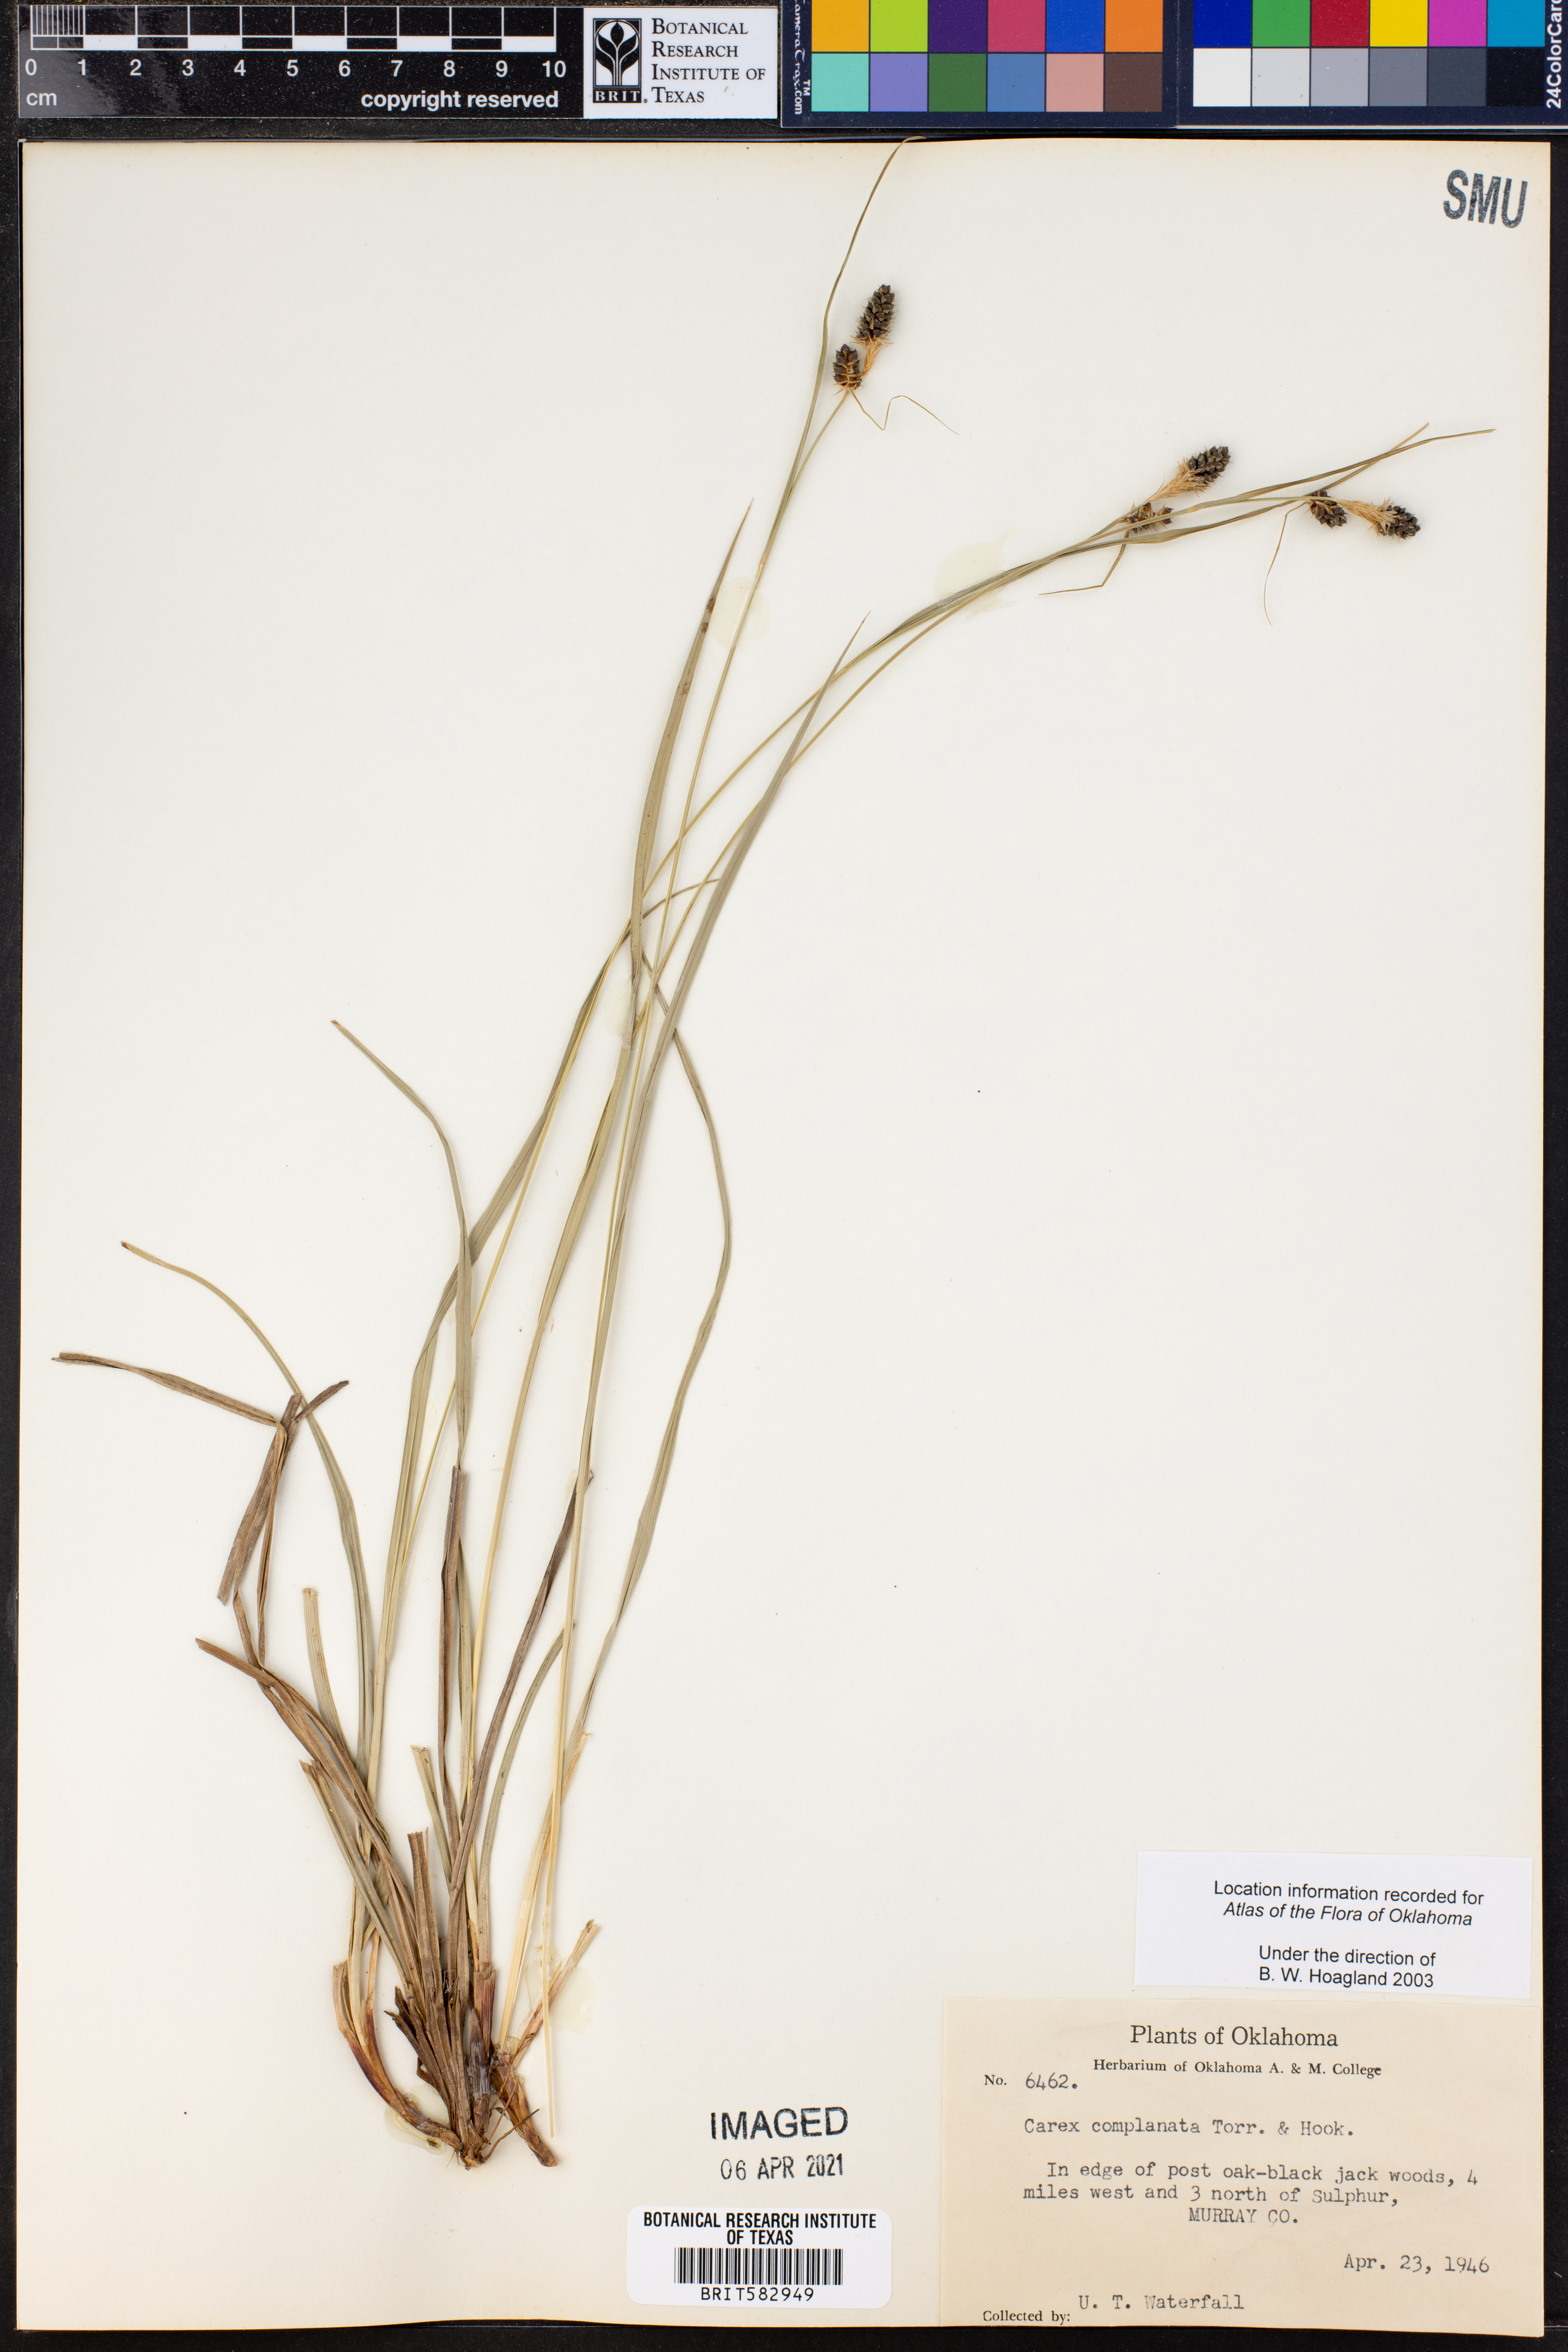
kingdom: Plantae
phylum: Tracheophyta
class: Liliopsida
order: Poales
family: Cyperaceae
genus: Carex
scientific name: Carex
